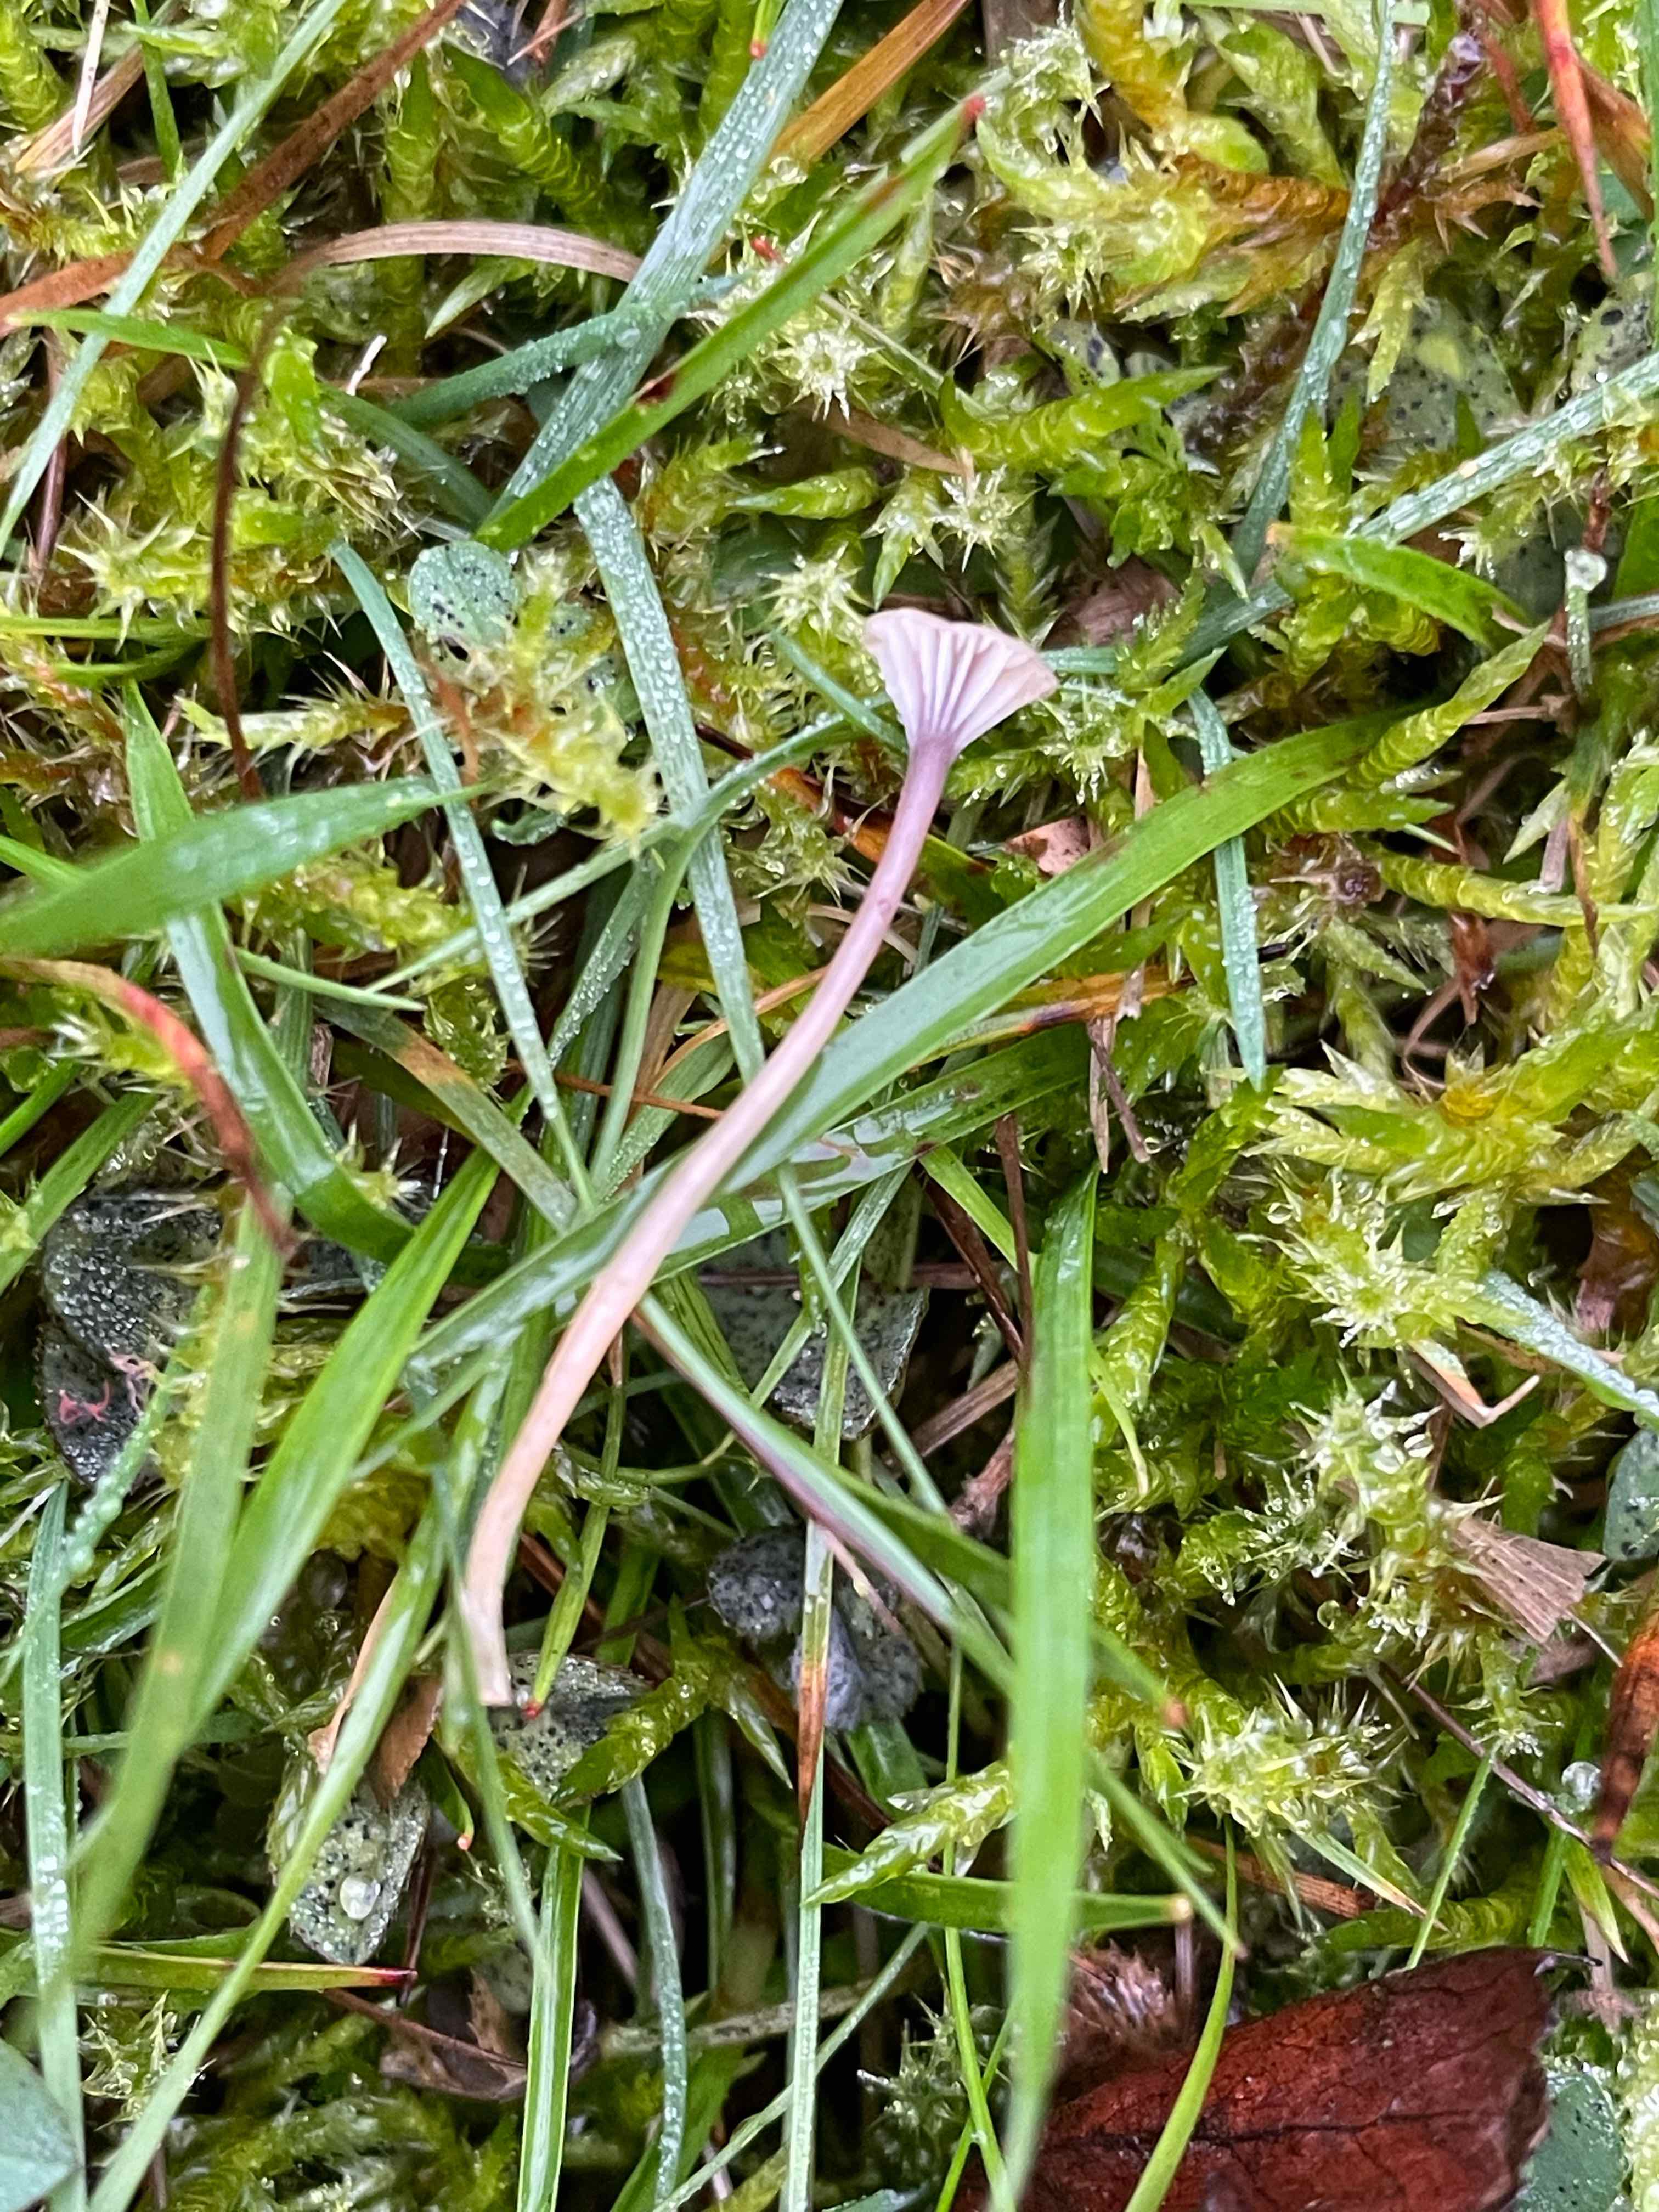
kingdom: Fungi
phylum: Basidiomycota
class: Agaricomycetes
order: Hymenochaetales
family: Rickenellaceae
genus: Rickenella
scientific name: Rickenella swartzii
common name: finstokket mosnavlehat
